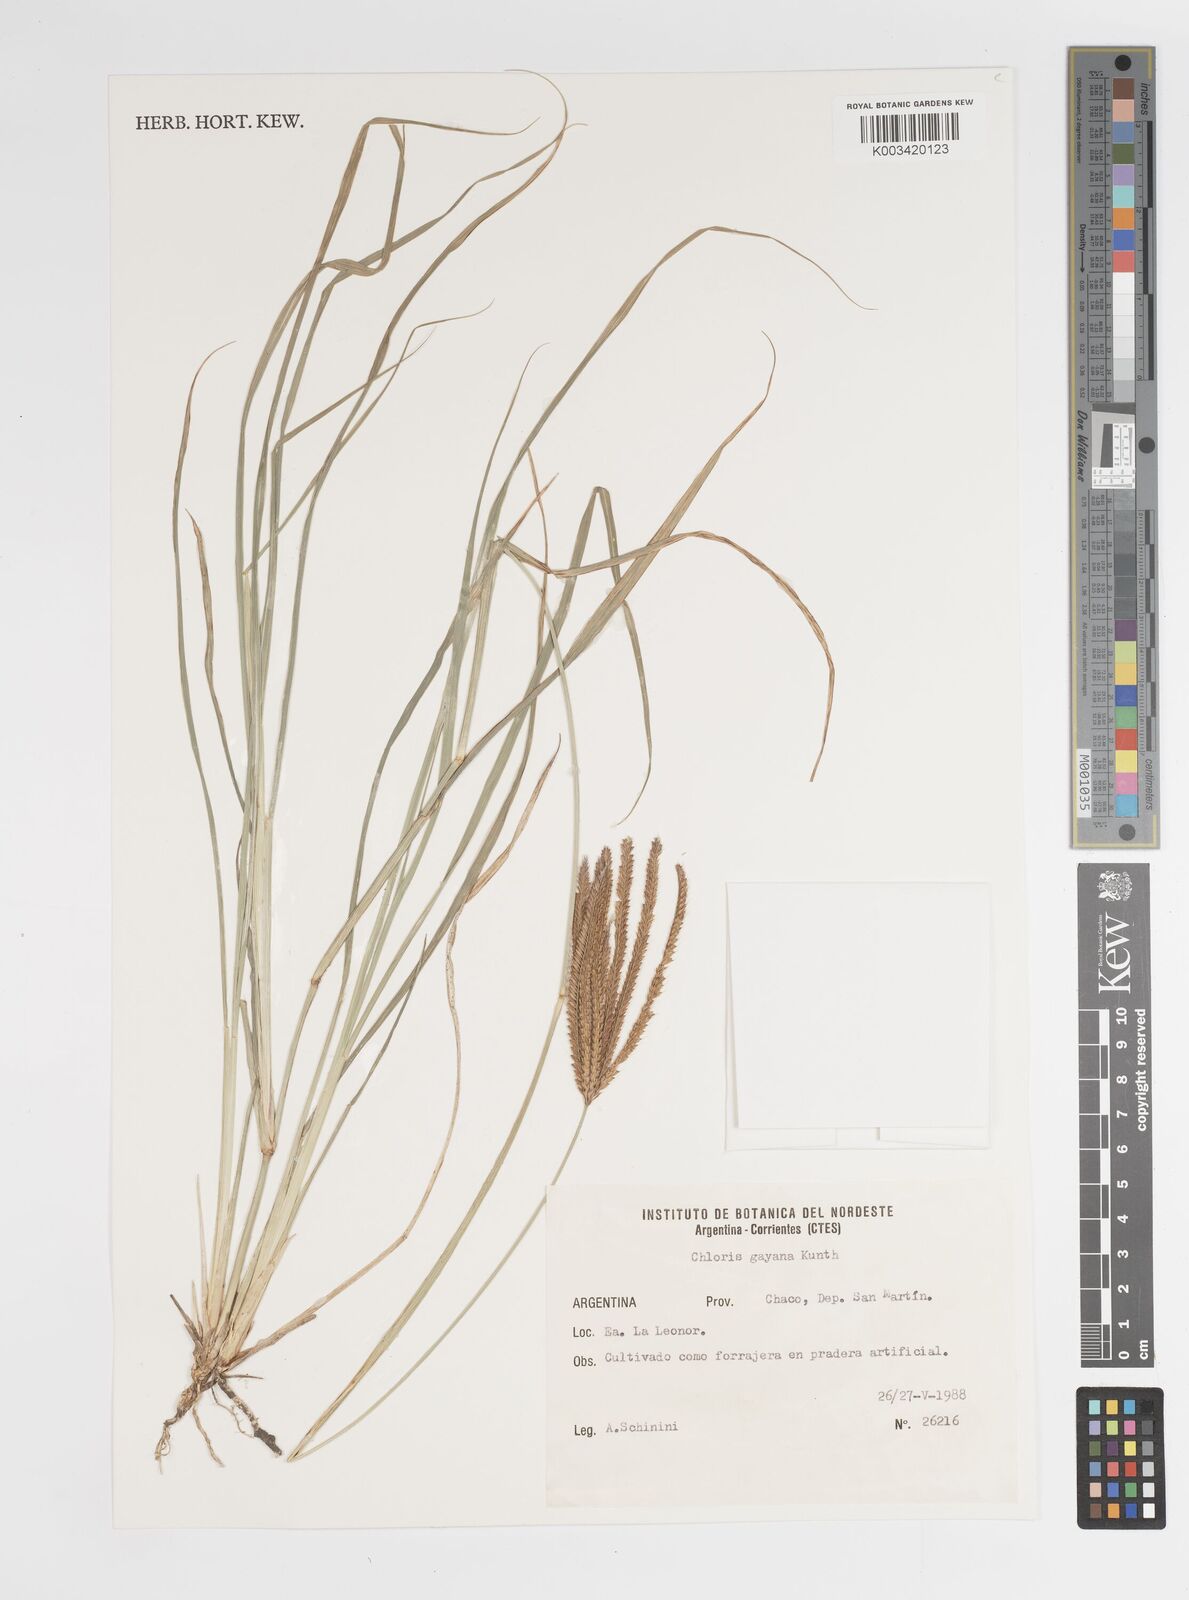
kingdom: Plantae
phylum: Tracheophyta
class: Liliopsida
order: Poales
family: Poaceae
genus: Chloris
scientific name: Chloris gayana
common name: Rhodes grass
